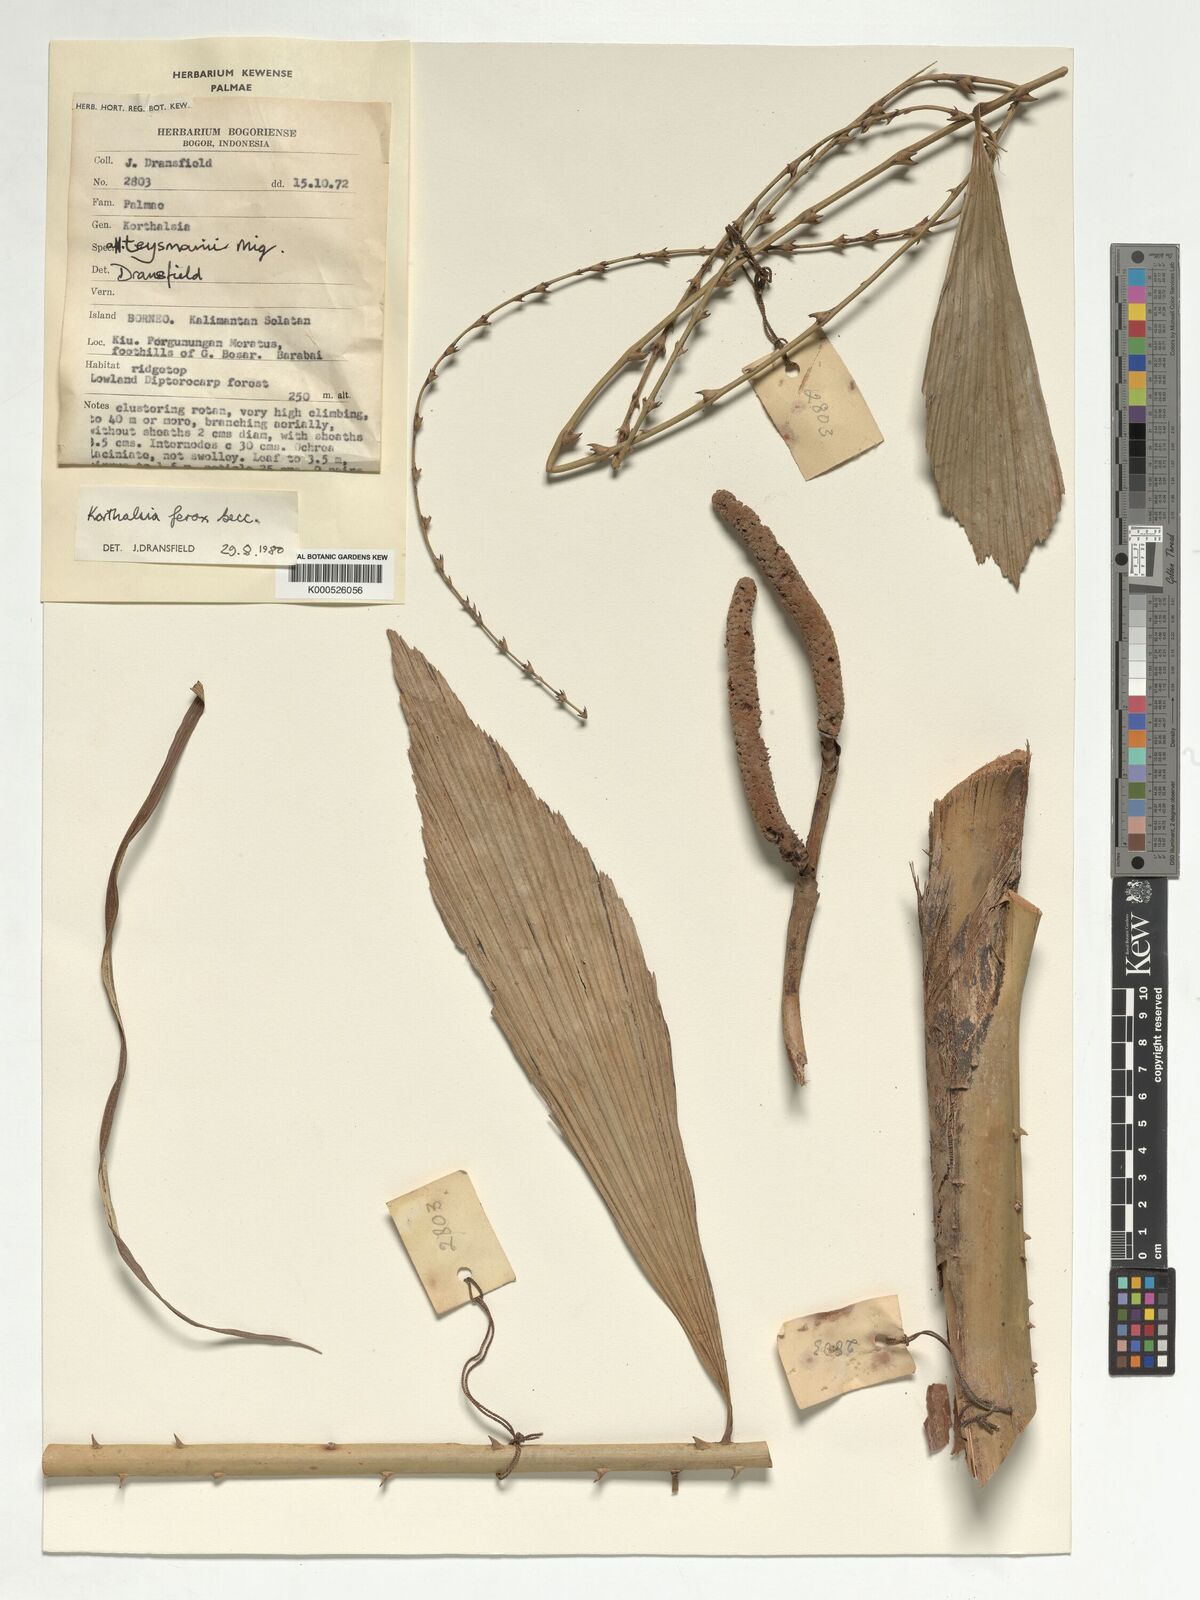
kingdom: Plantae
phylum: Tracheophyta
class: Liliopsida
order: Arecales
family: Arecaceae
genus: Korthalsia
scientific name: Korthalsia ferox
